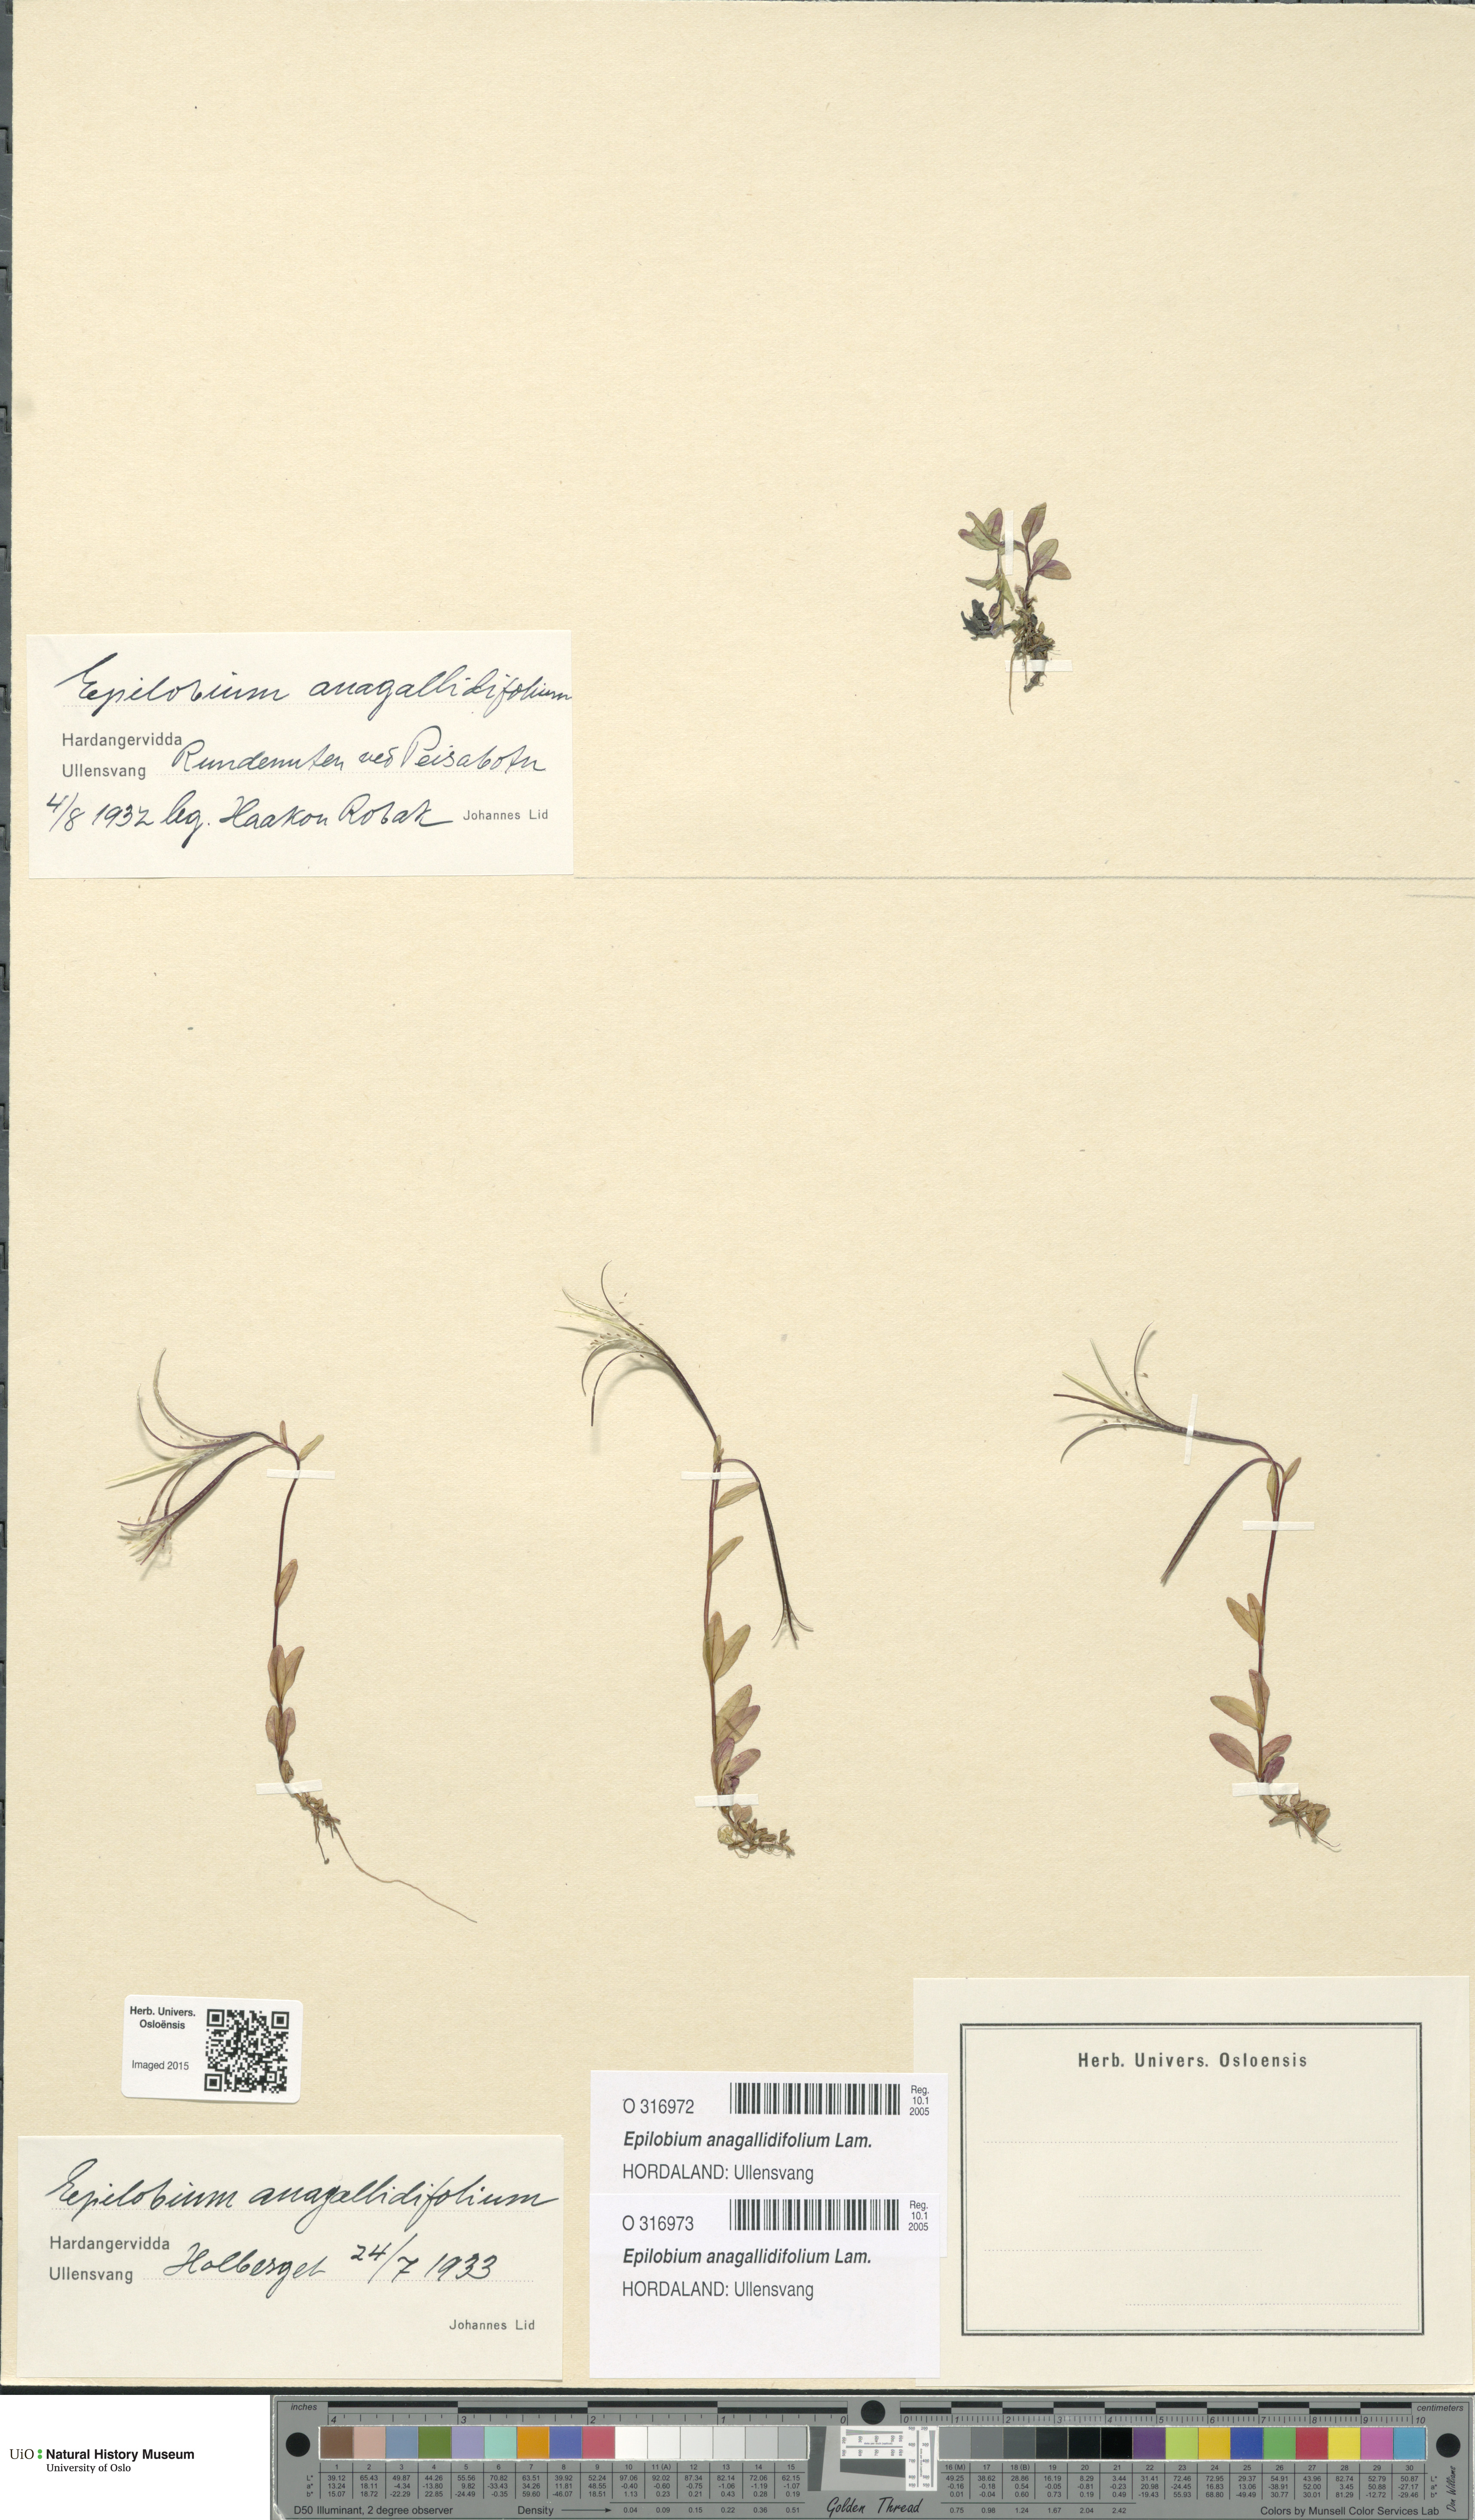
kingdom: Plantae
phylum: Tracheophyta
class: Magnoliopsida
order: Myrtales
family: Onagraceae
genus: Epilobium
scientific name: Epilobium anagallidifolium
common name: Alpine willowherb
